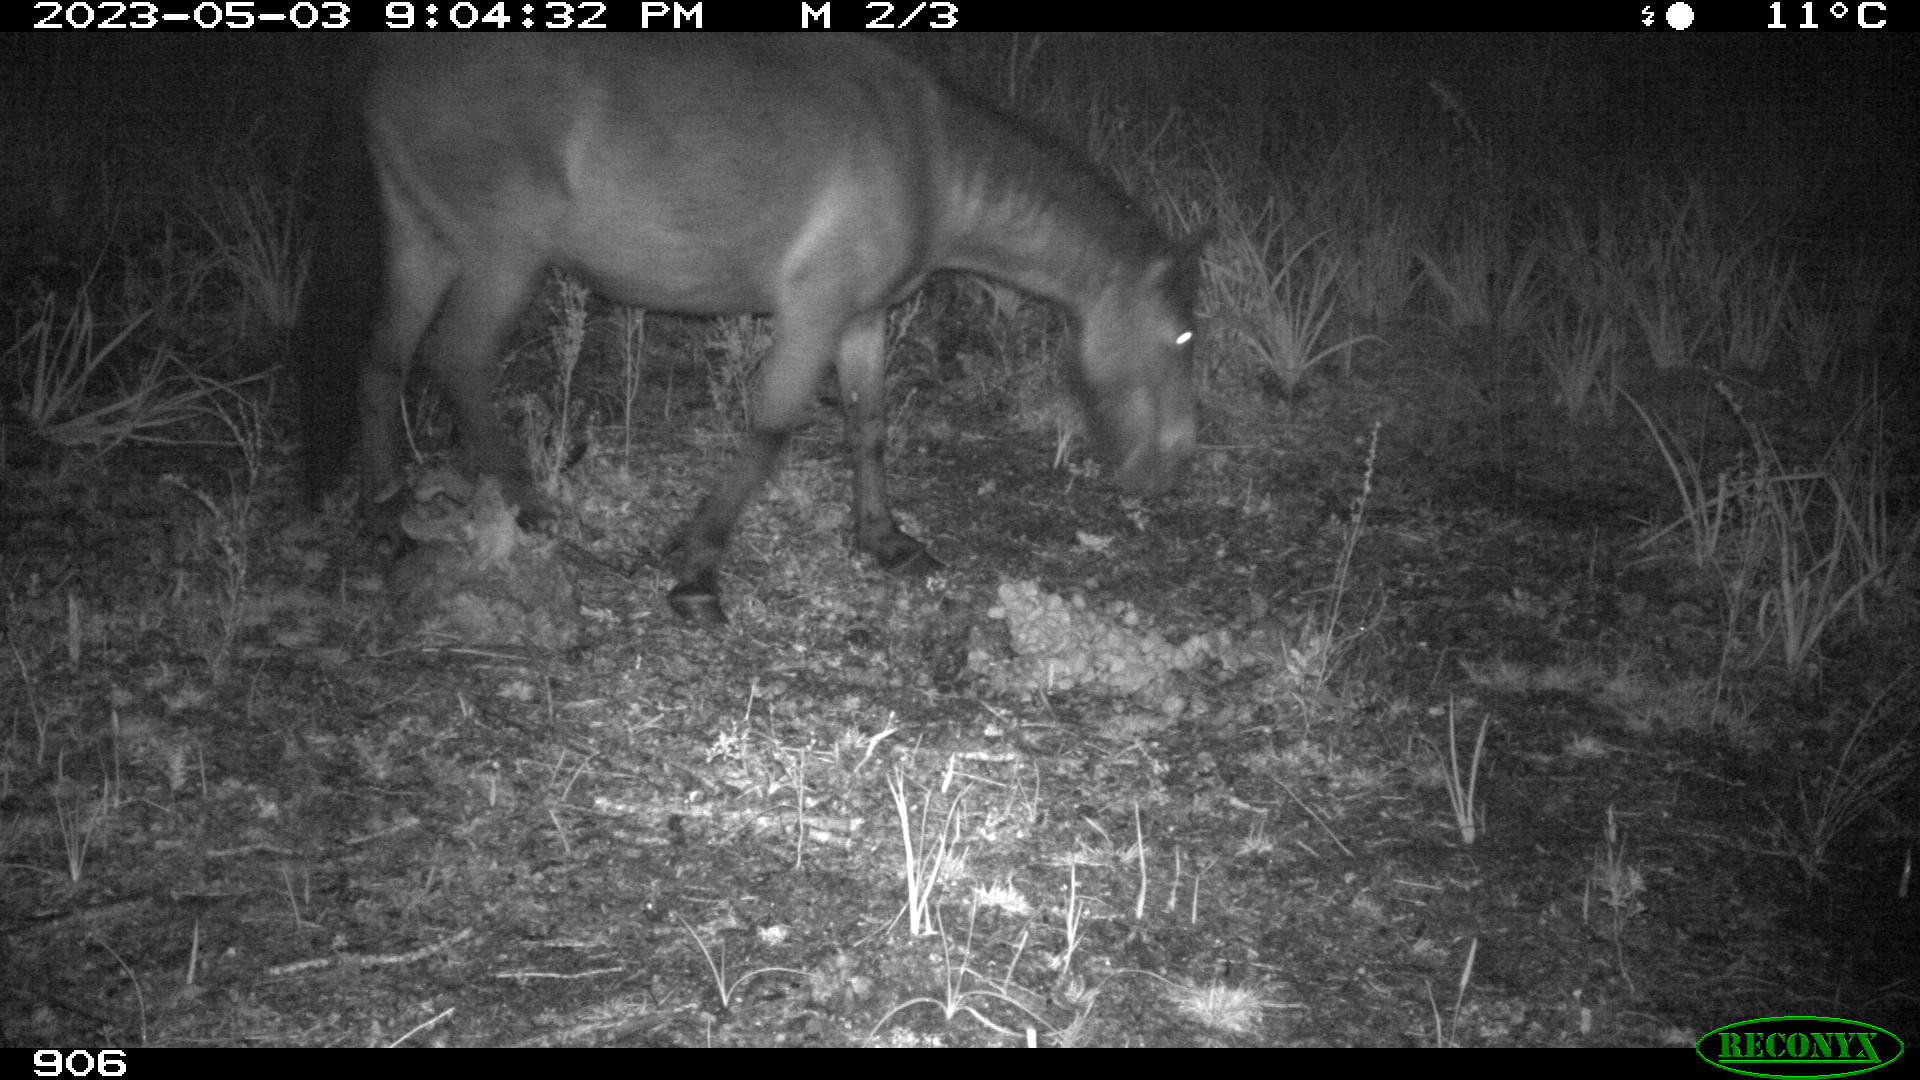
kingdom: Animalia
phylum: Chordata
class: Mammalia
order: Perissodactyla
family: Equidae
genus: Equus
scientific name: Equus caballus
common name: Horse
